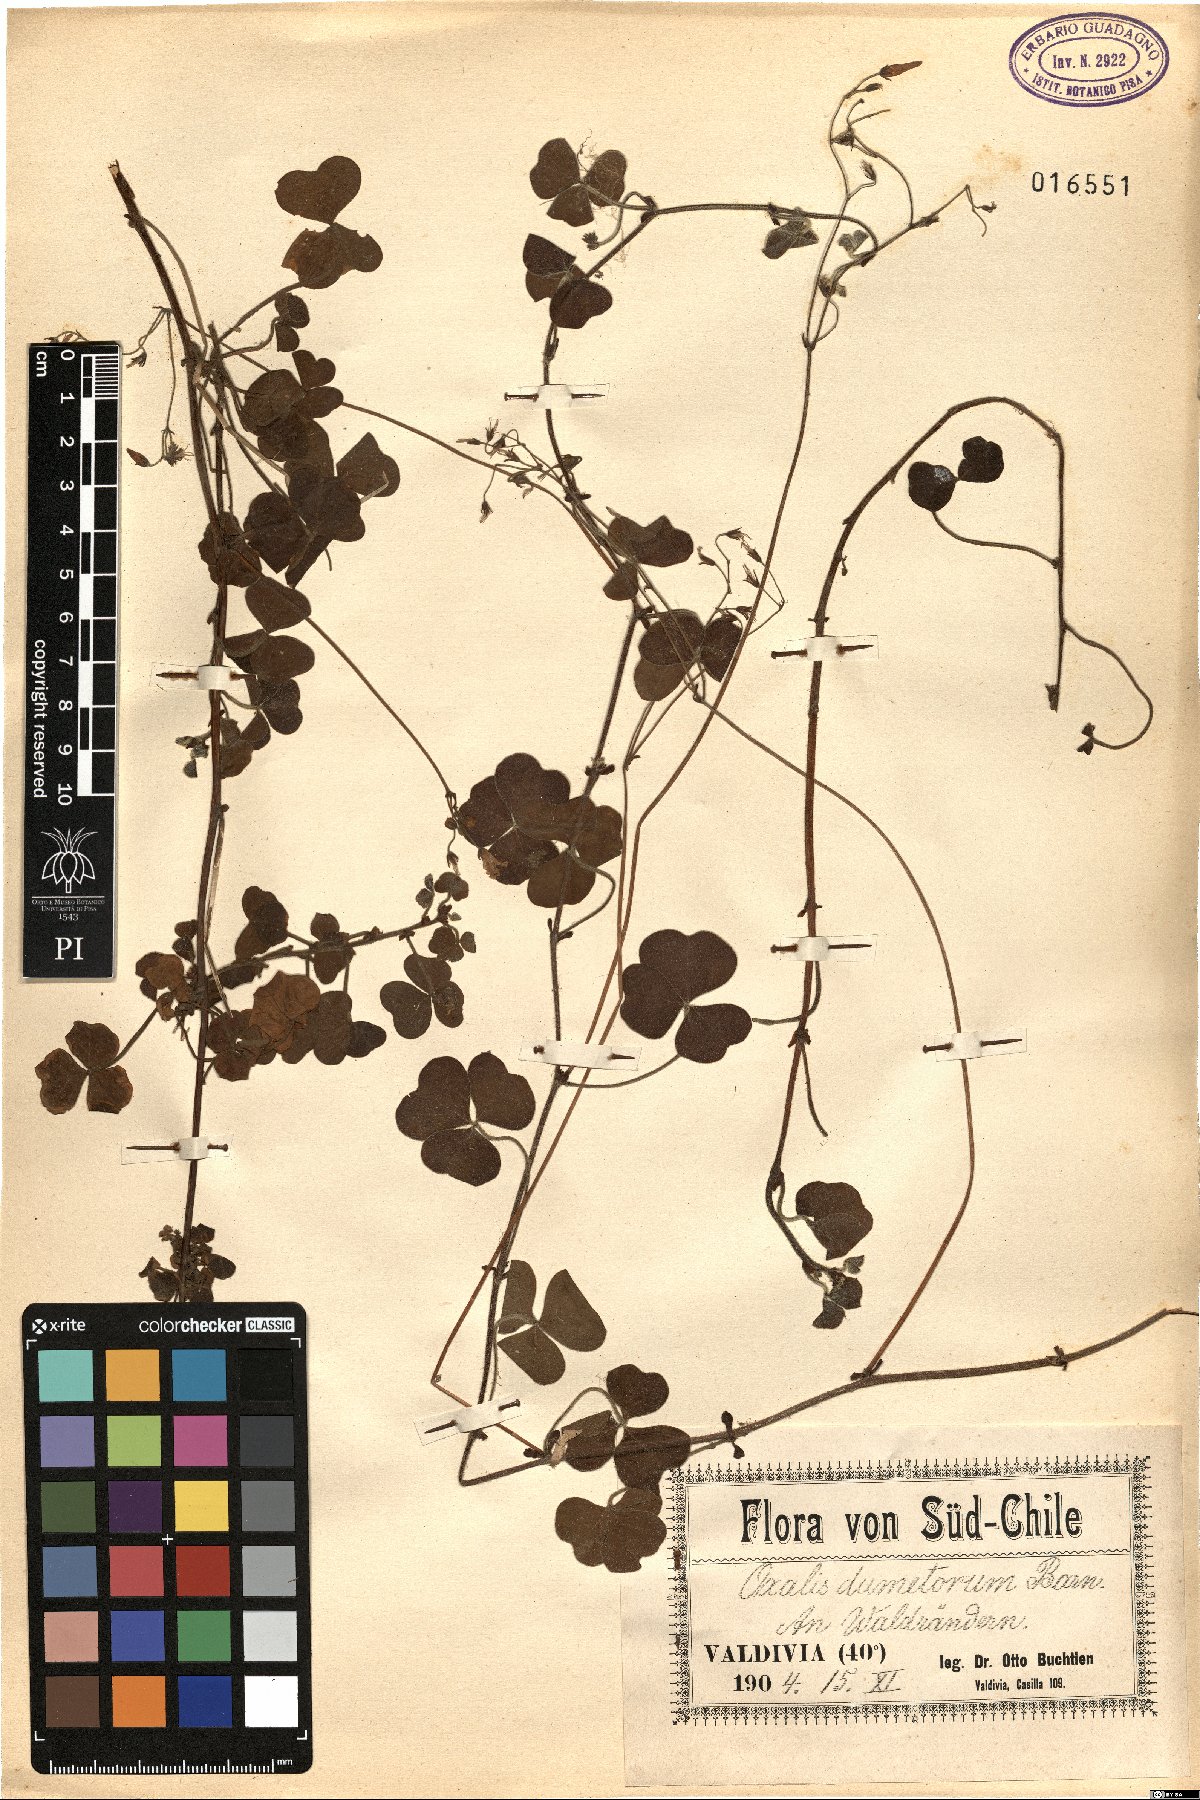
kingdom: Plantae
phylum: Tracheophyta
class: Magnoliopsida
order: Oxalidales
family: Oxalidaceae
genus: Oxalis
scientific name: Oxalis dumetorum
